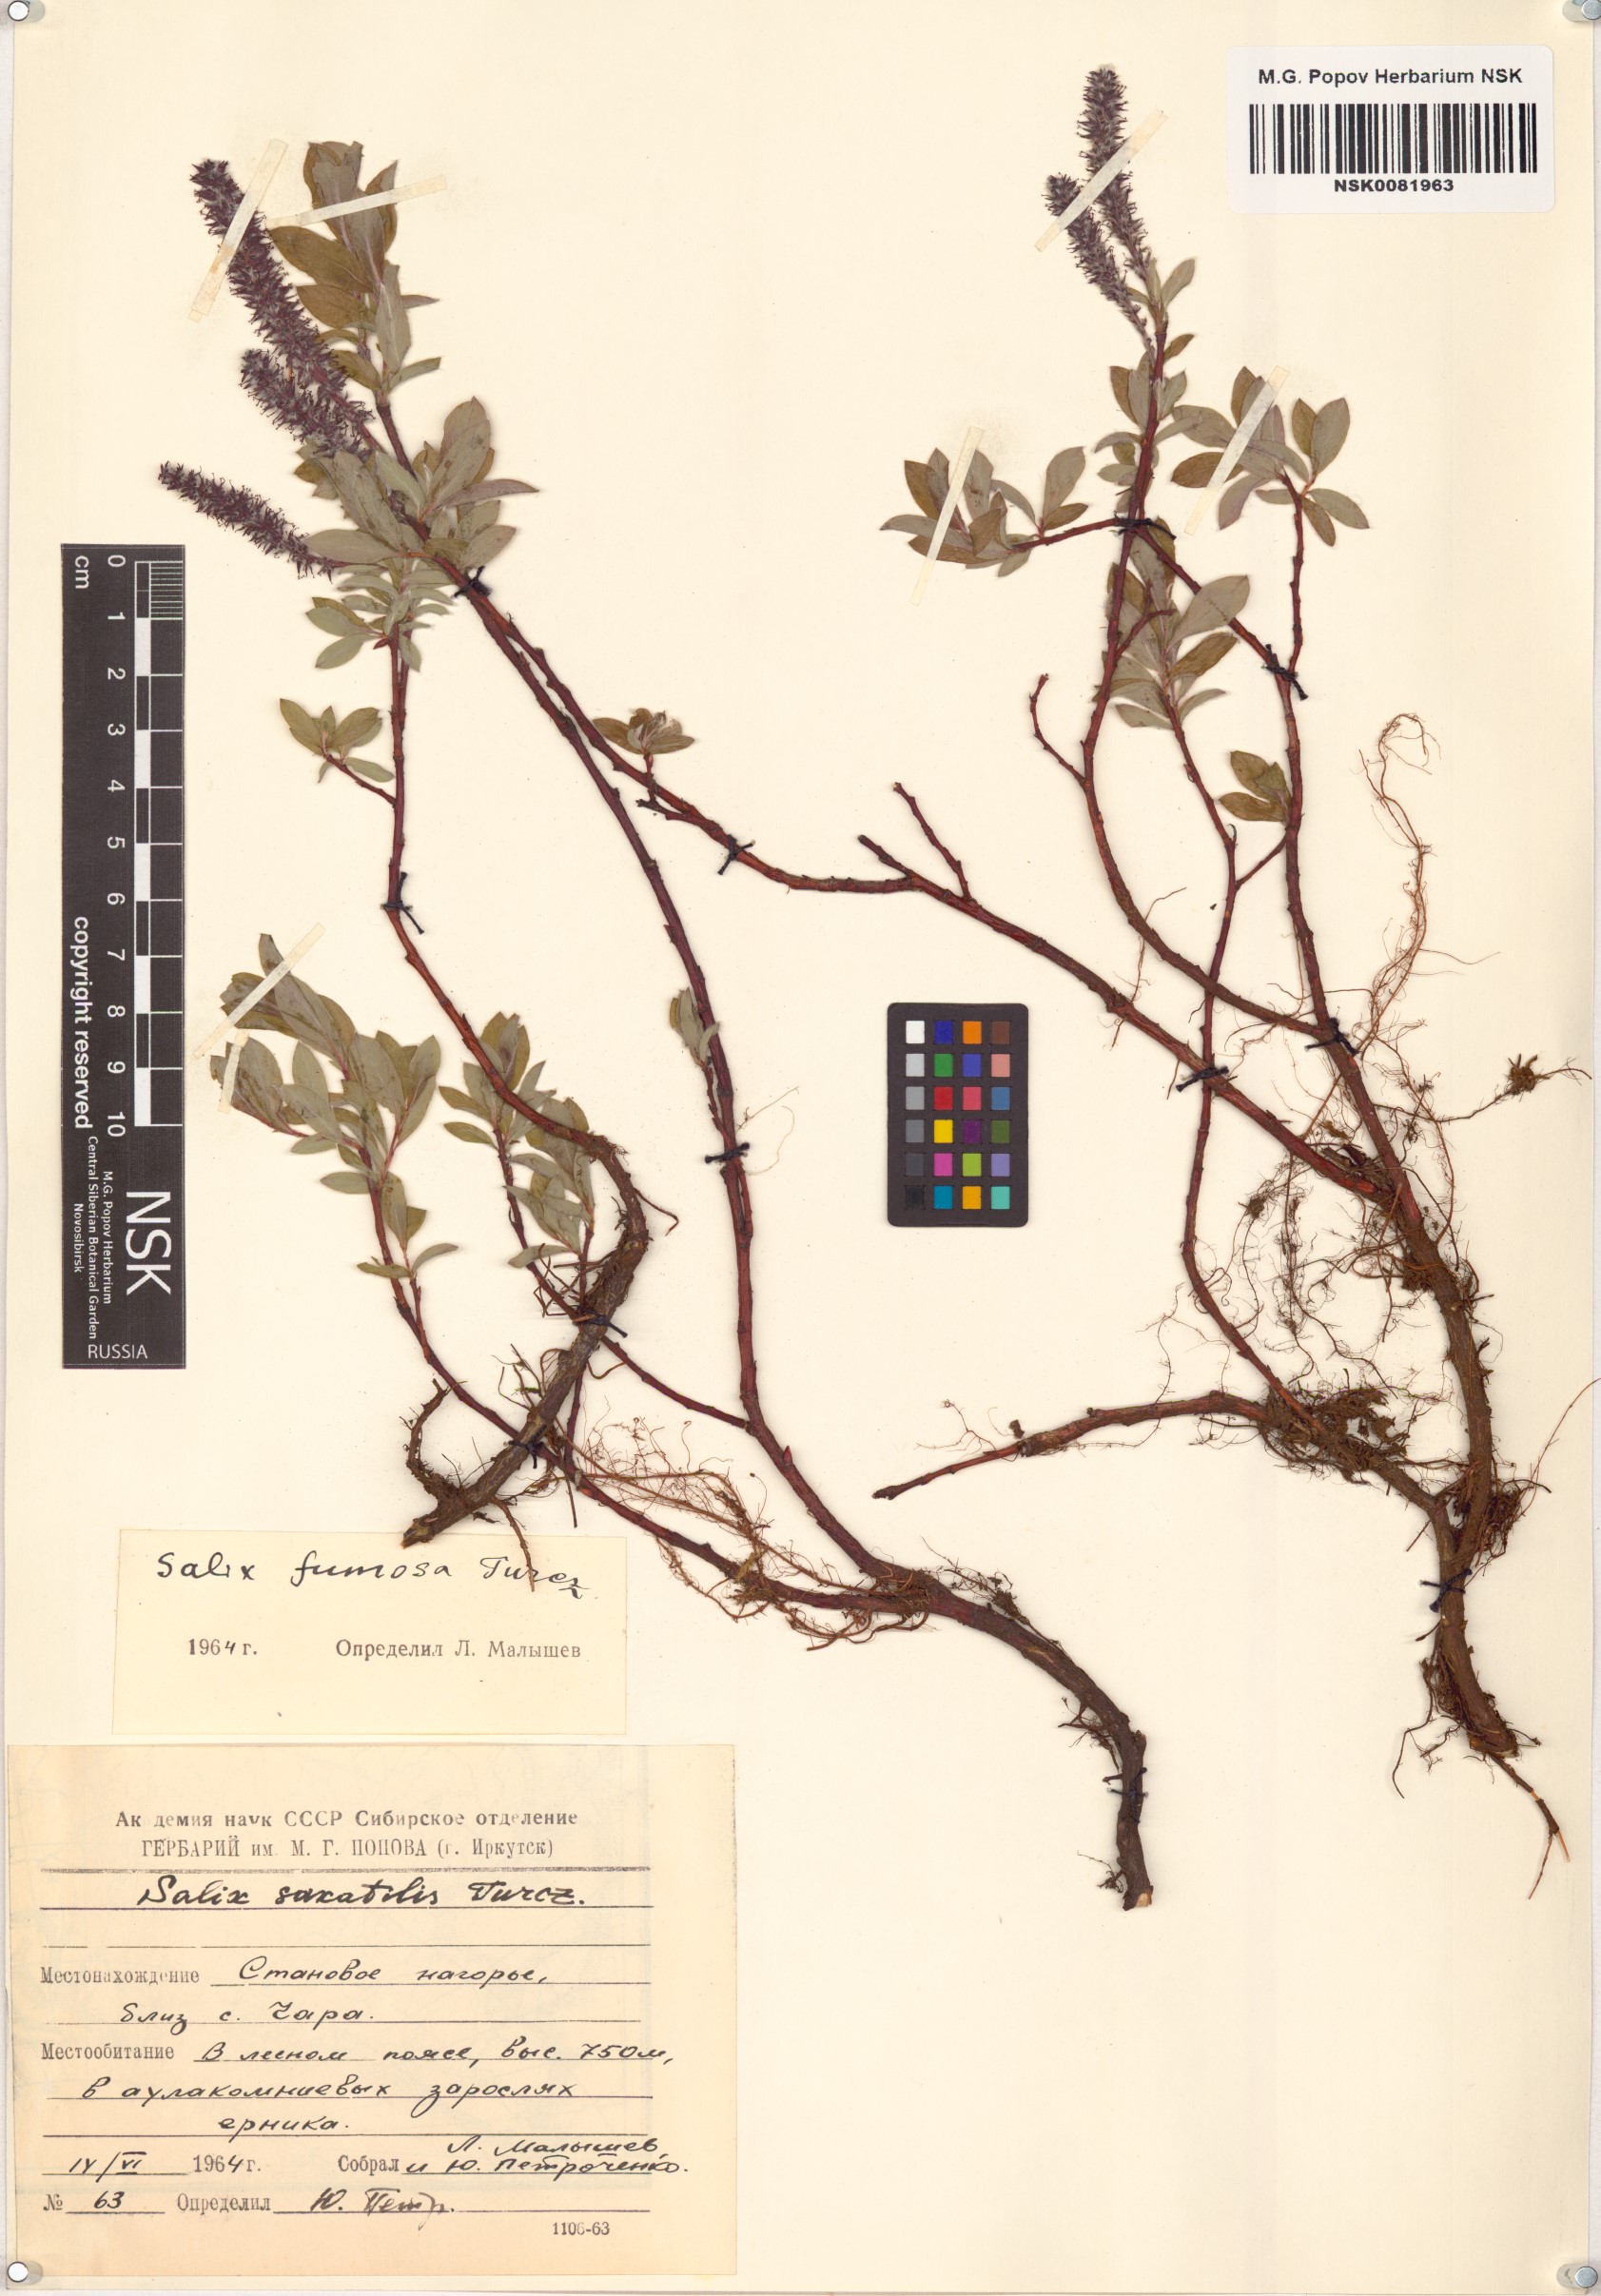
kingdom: Plantae
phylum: Tracheophyta
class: Magnoliopsida
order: Malpighiales
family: Salicaceae
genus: Salix
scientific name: Salix saxatilis
